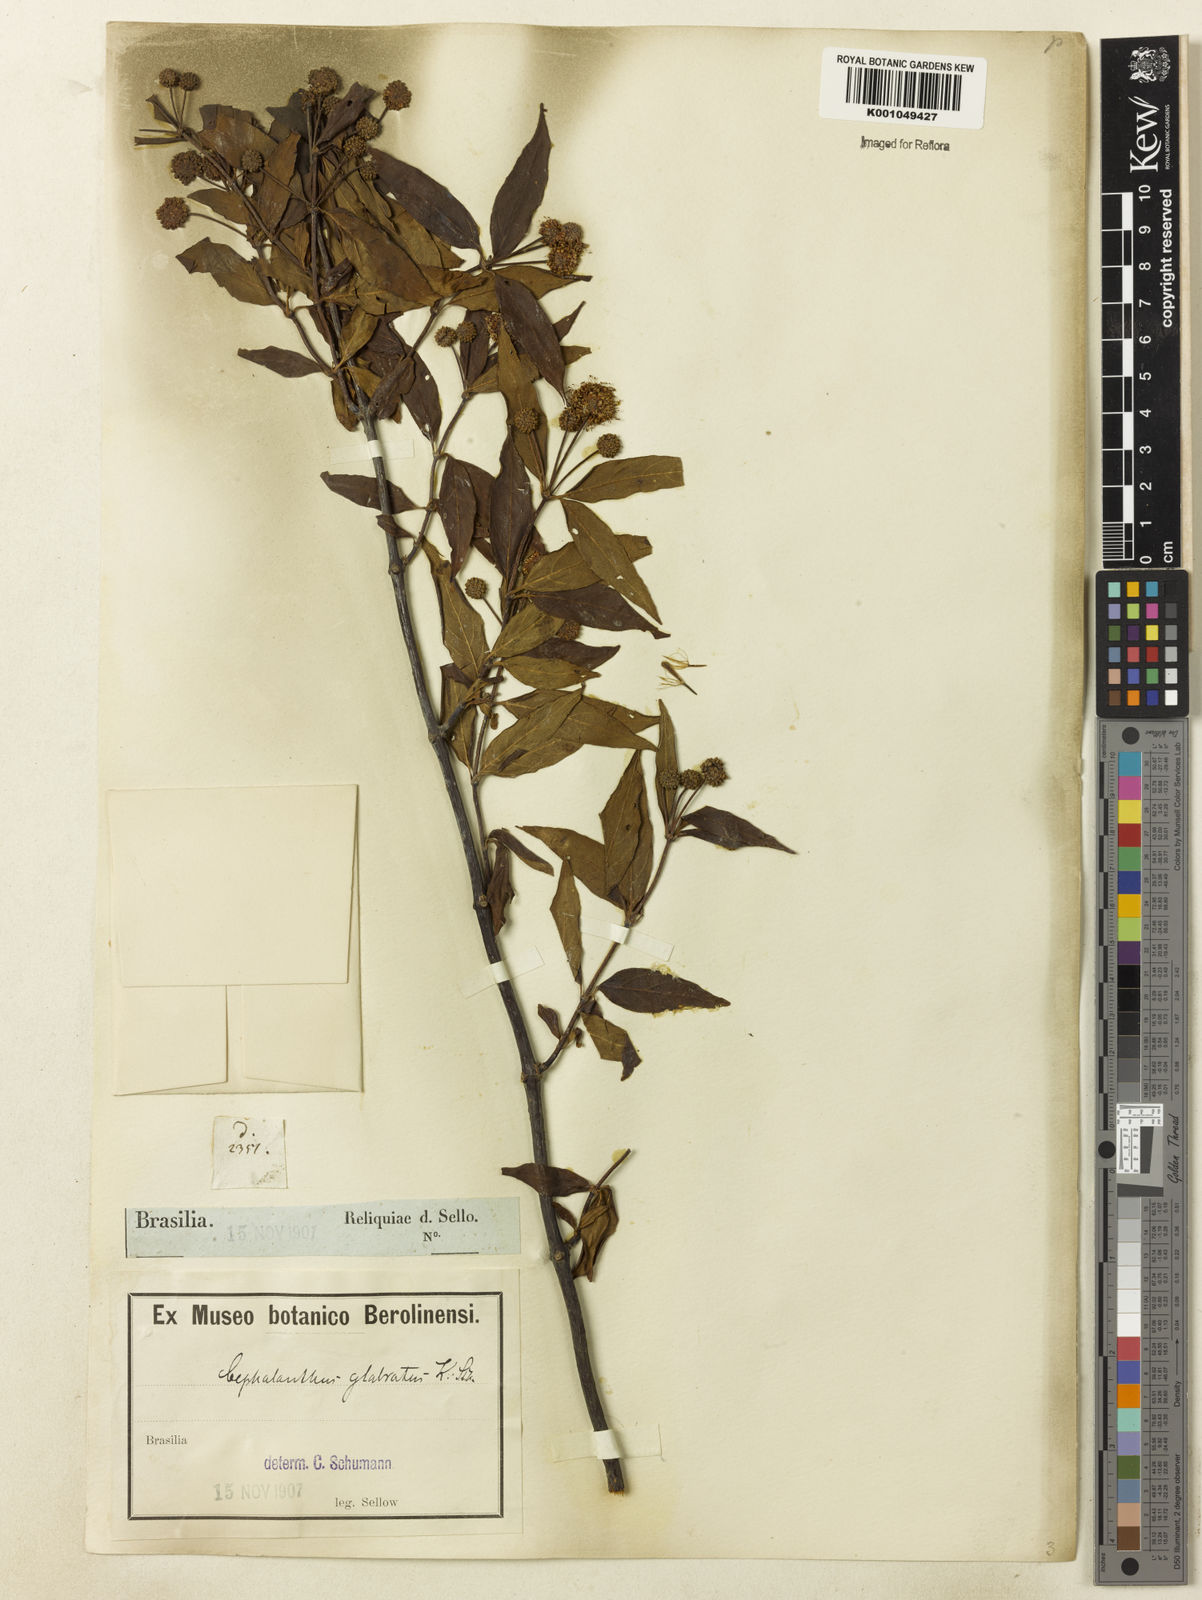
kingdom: Plantae
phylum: Tracheophyta
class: Magnoliopsida
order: Gentianales
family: Rubiaceae
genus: Cephalanthus
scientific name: Cephalanthus glabratus
